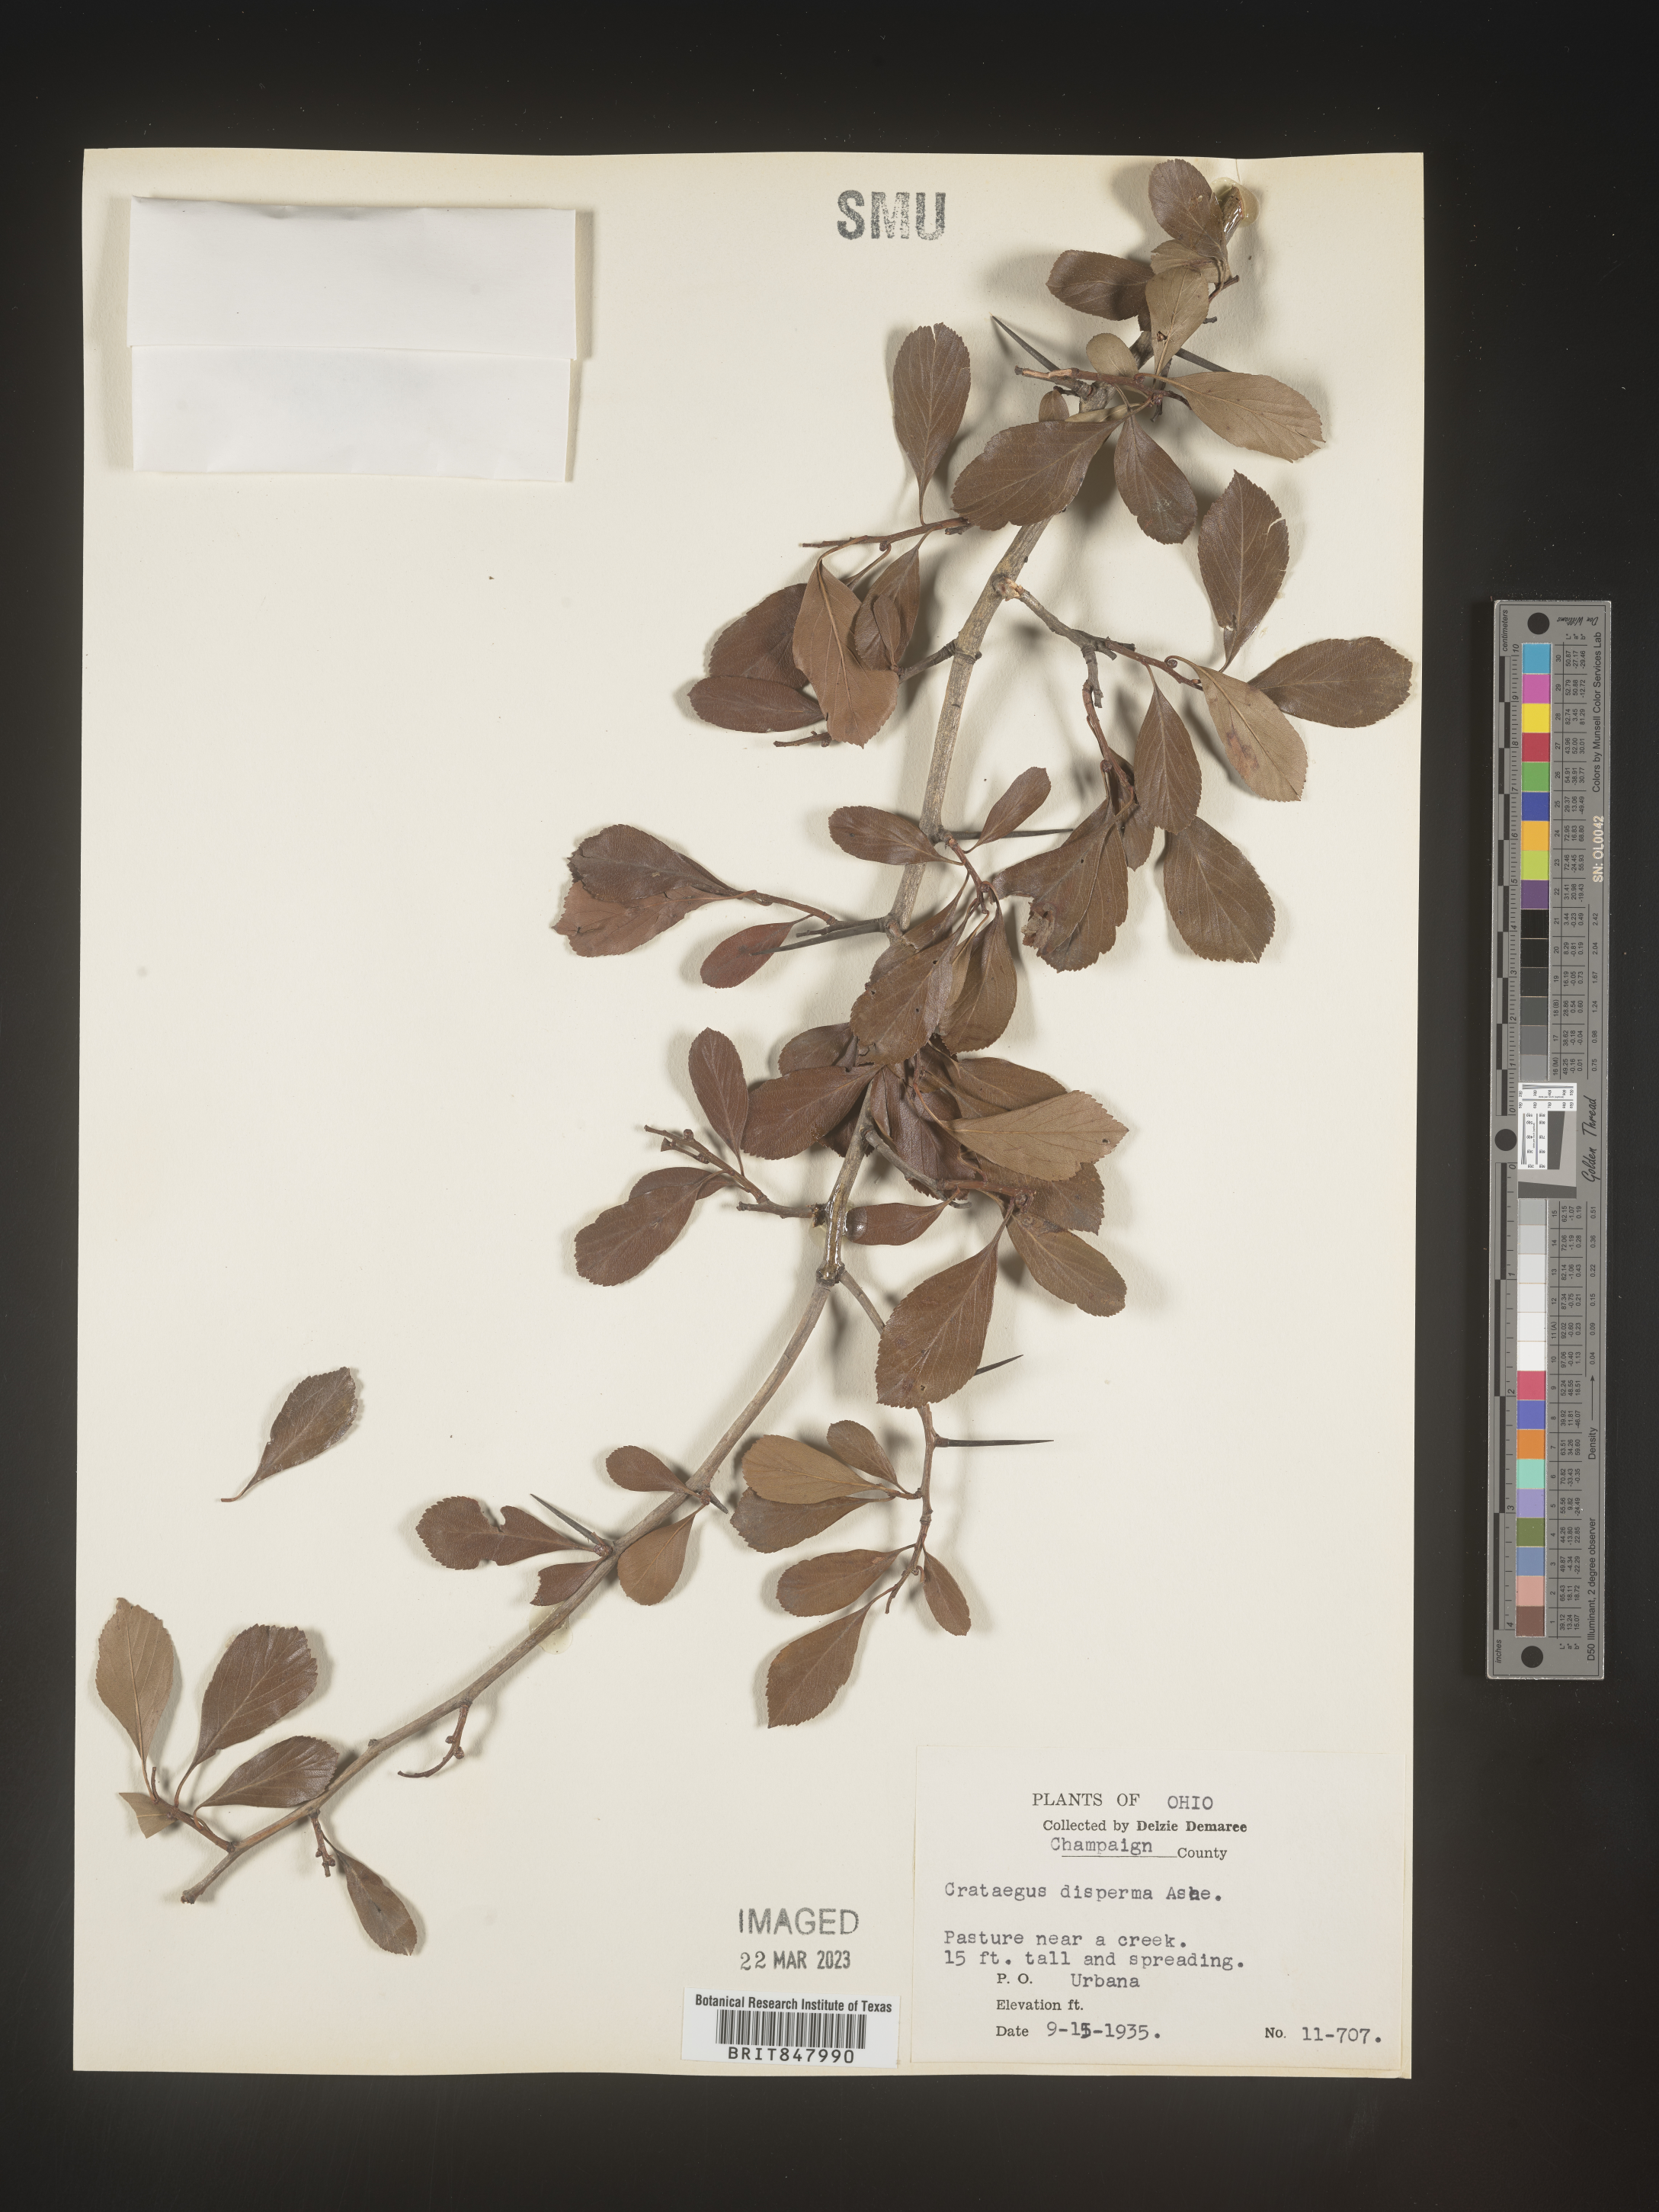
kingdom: Plantae
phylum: Tracheophyta
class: Magnoliopsida
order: Rosales
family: Rosaceae
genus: Crataegus
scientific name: Crataegus
